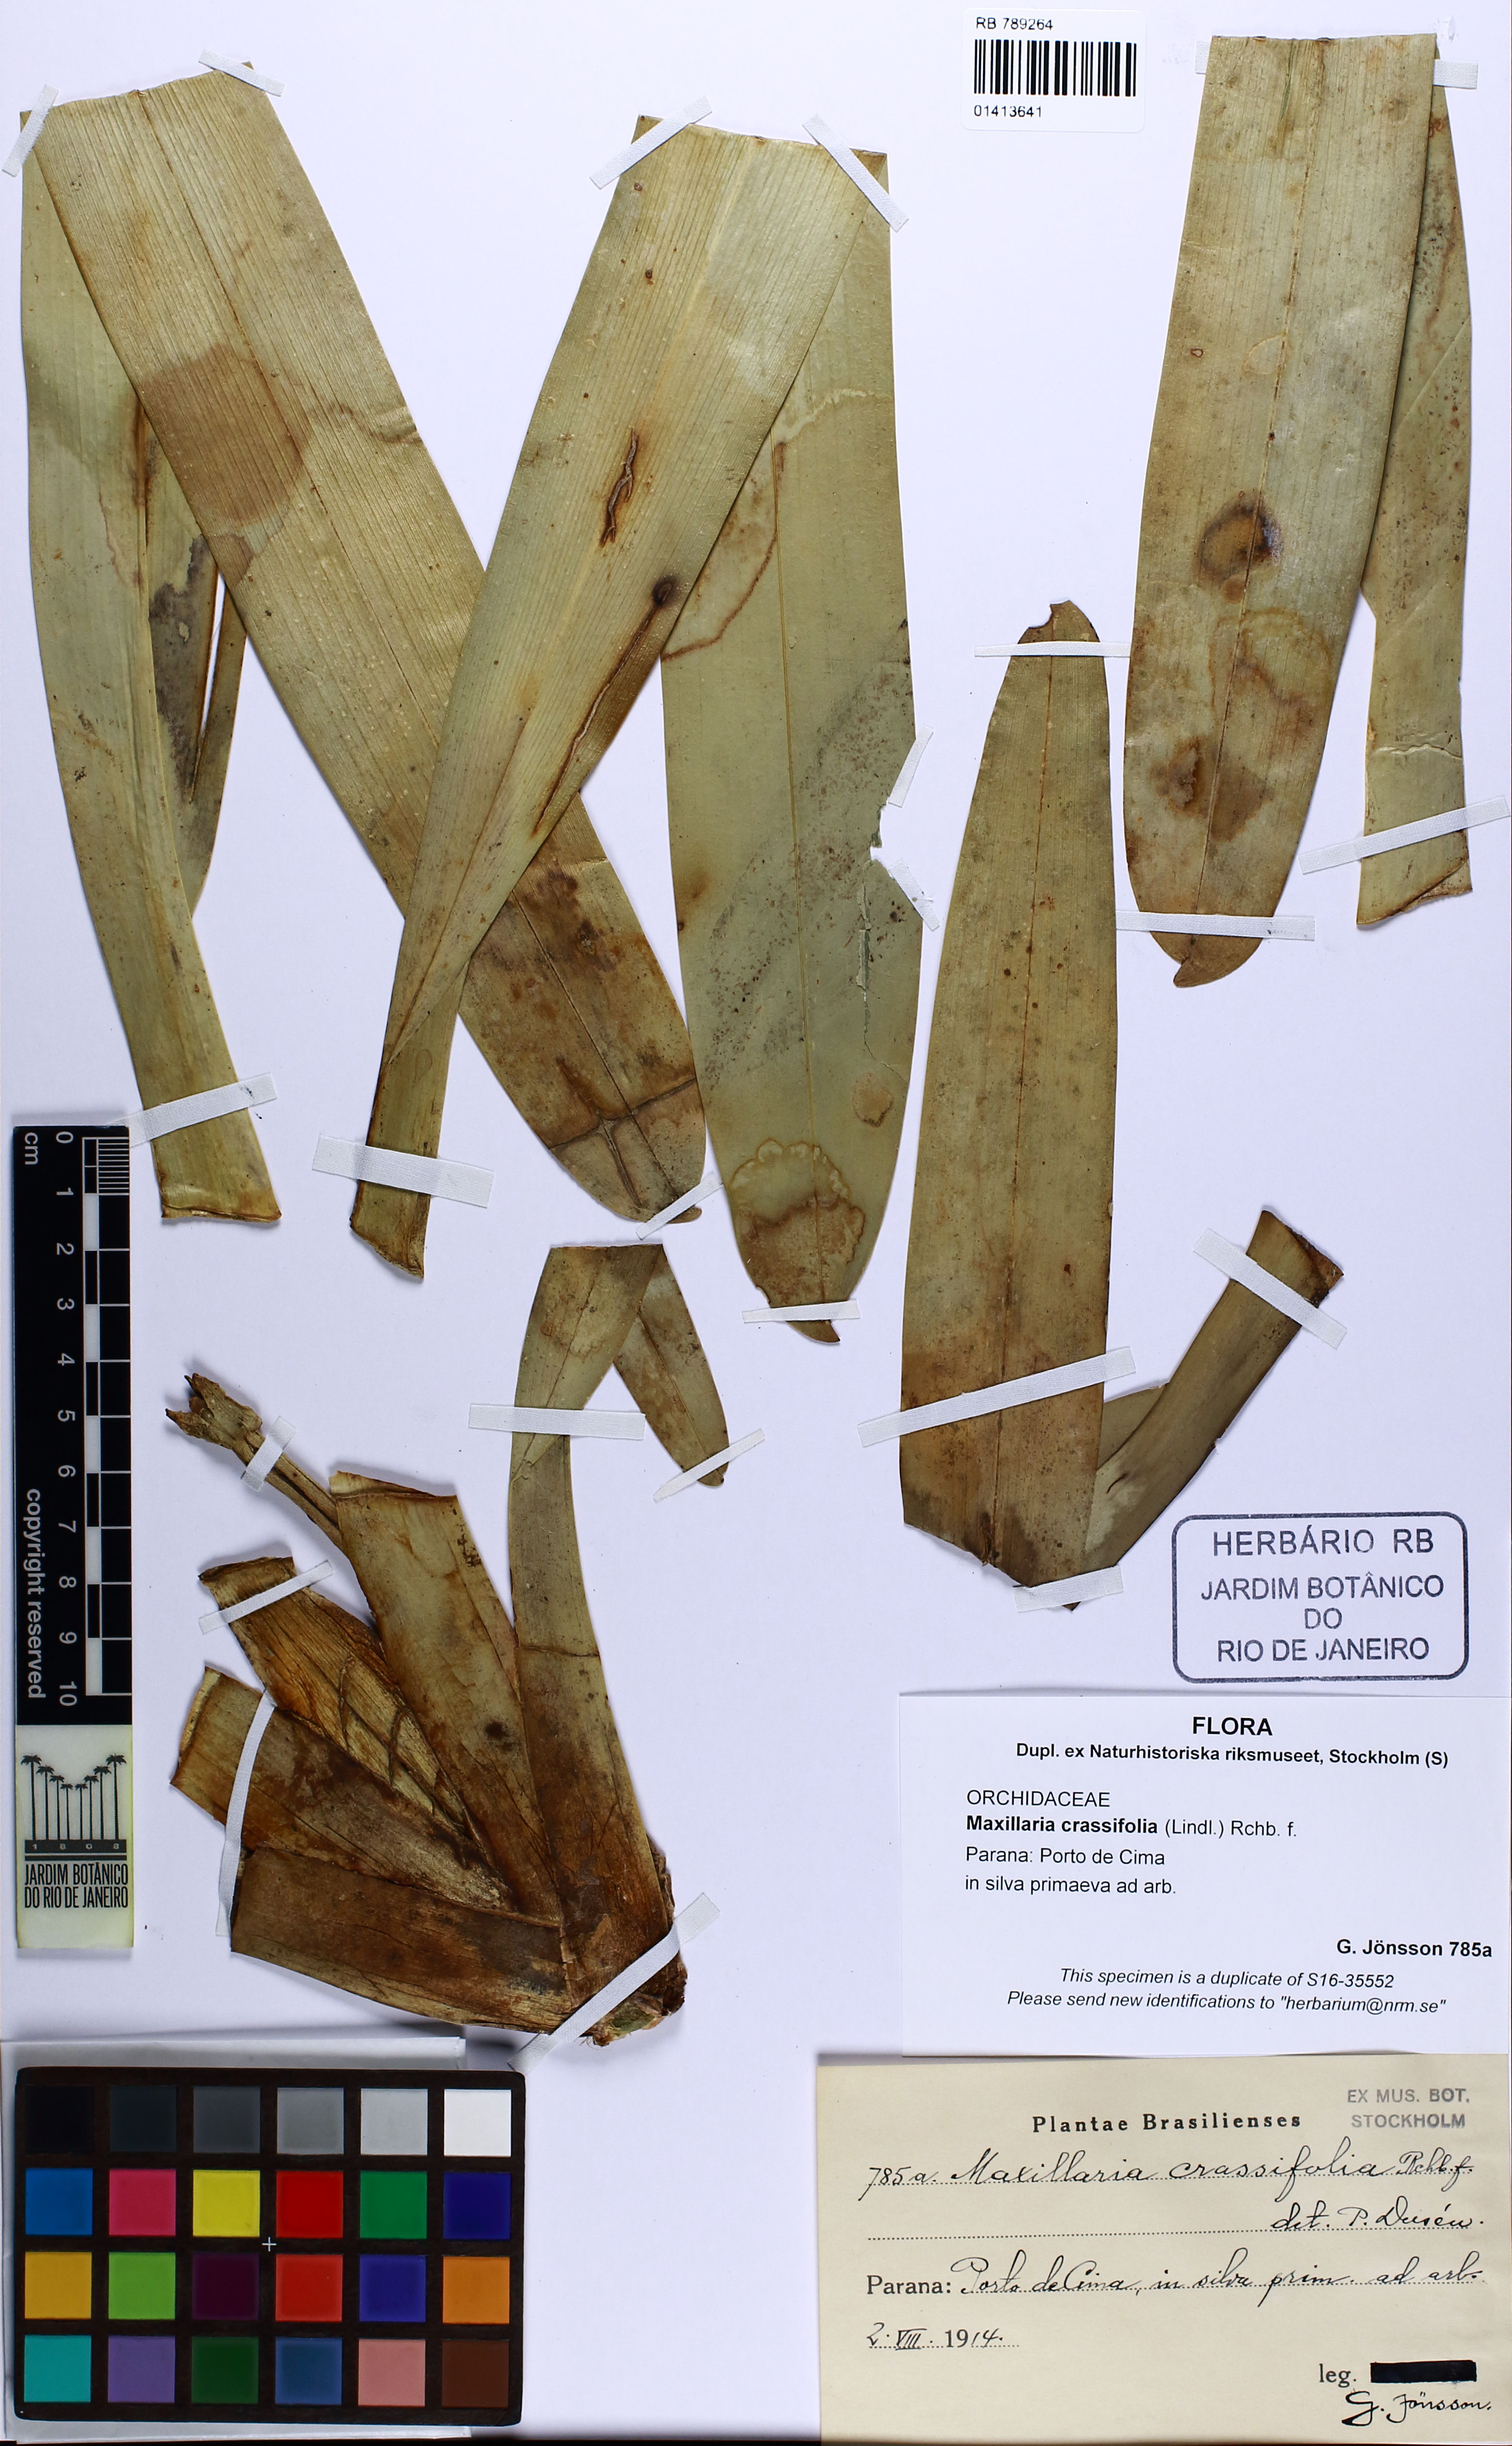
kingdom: Plantae
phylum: Tracheophyta
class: Liliopsida
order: Asparagales
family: Orchidaceae
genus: Maxillaria
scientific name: Maxillaria crassifolia
